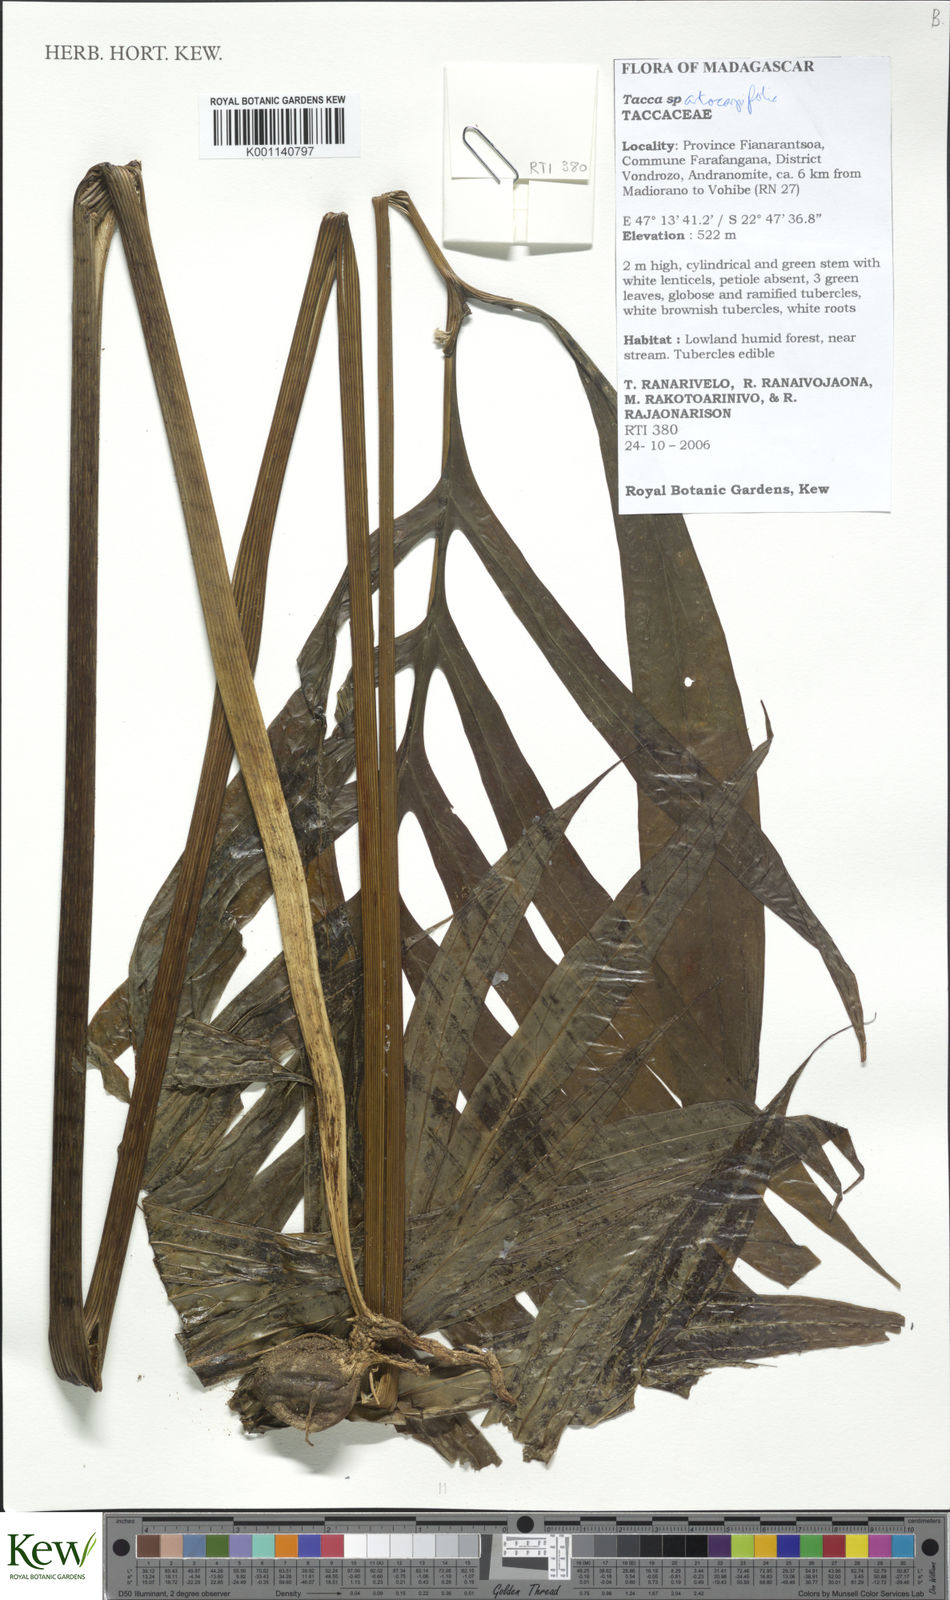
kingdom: Plantae
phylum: Tracheophyta
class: Liliopsida
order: Dioscoreales
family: Dioscoreaceae
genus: Tacca
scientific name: Tacca leontopetaloides
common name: Arrowroot
